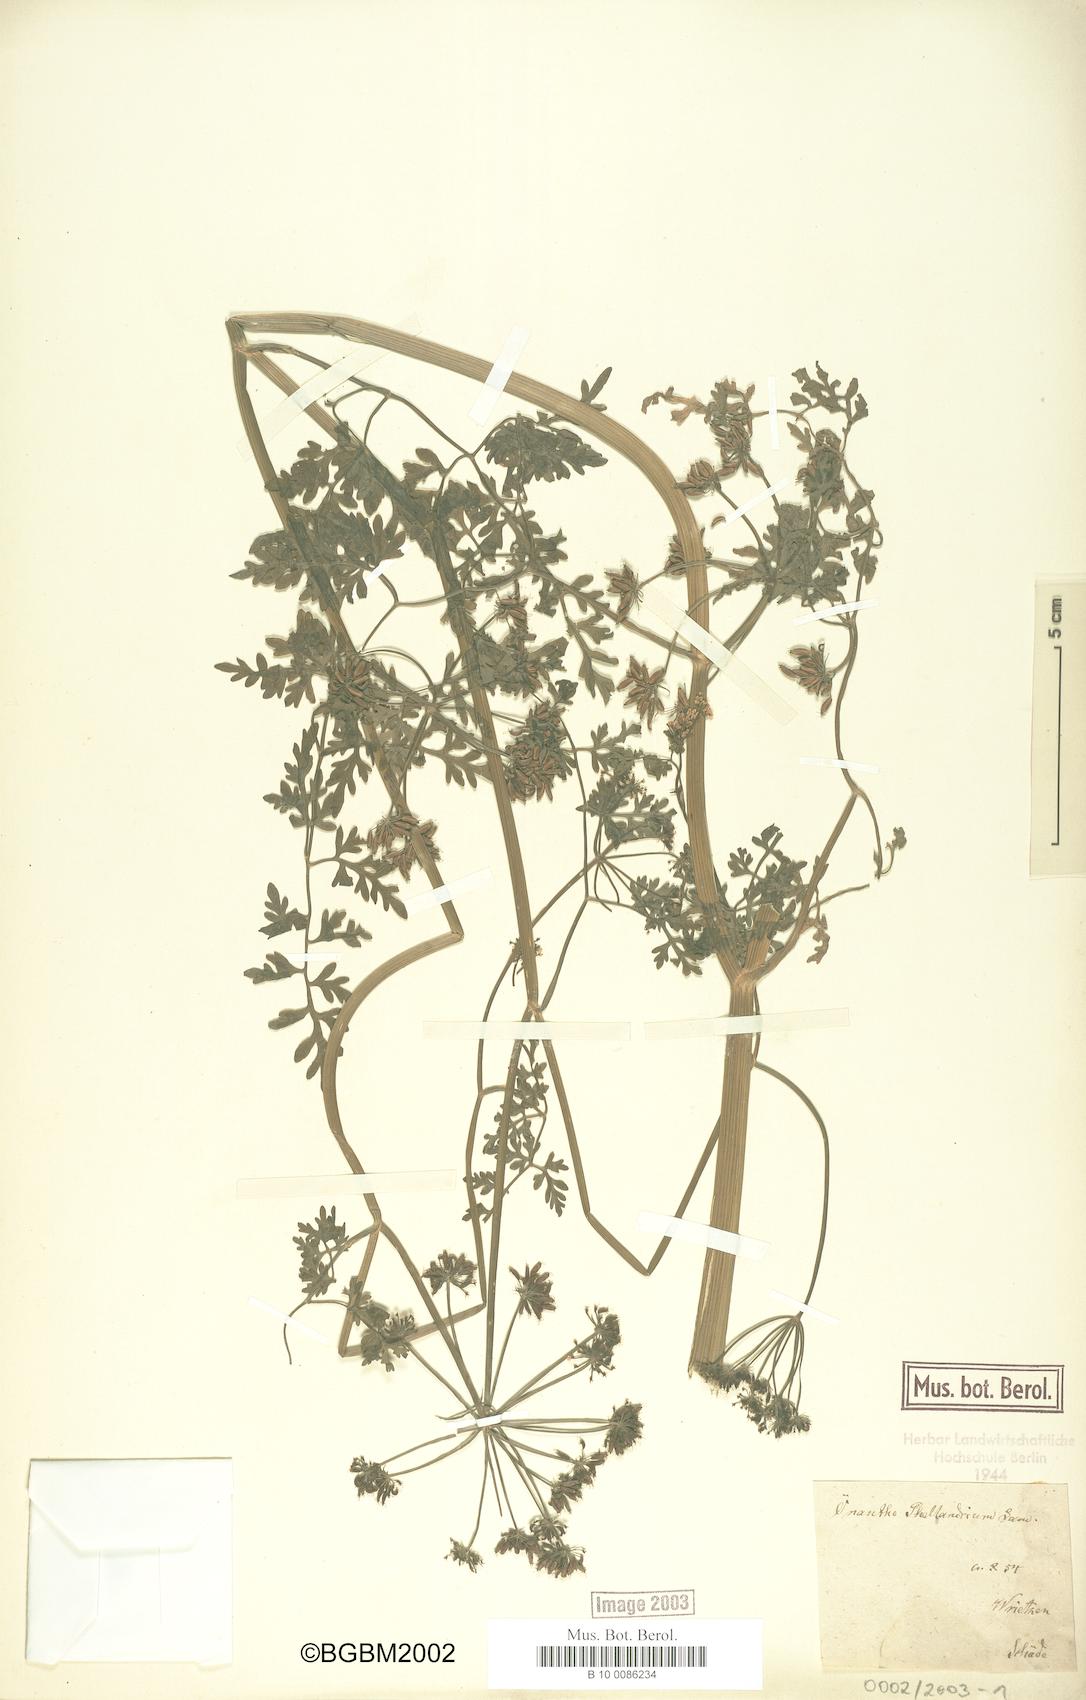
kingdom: Plantae
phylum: Tracheophyta
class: Magnoliopsida
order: Apiales
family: Apiaceae
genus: Oenanthe
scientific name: Oenanthe aquatica
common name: Fine-leaved water-dropwort
